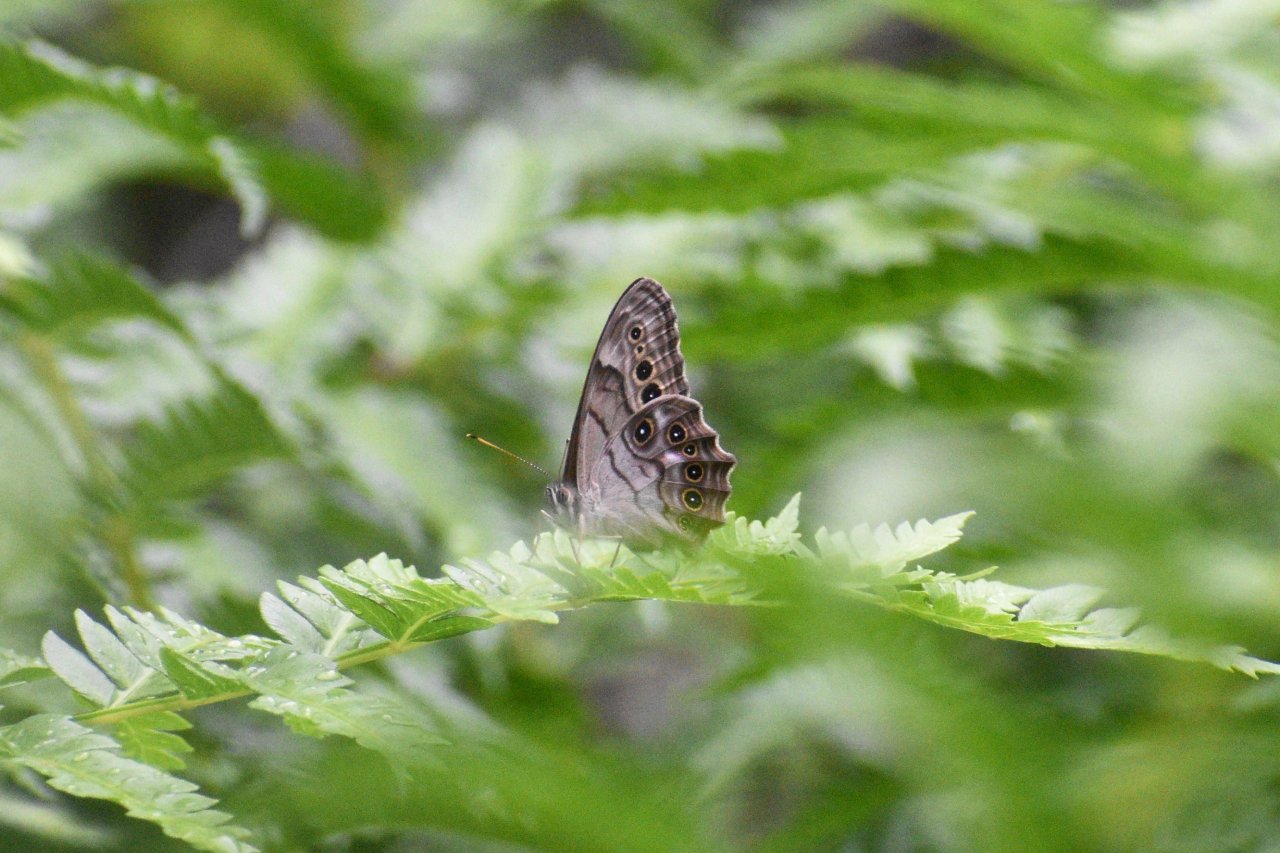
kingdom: Animalia
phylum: Arthropoda
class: Insecta
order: Lepidoptera
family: Nymphalidae
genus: Lethe
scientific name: Lethe anthedon
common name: Northern Pearly-Eye
